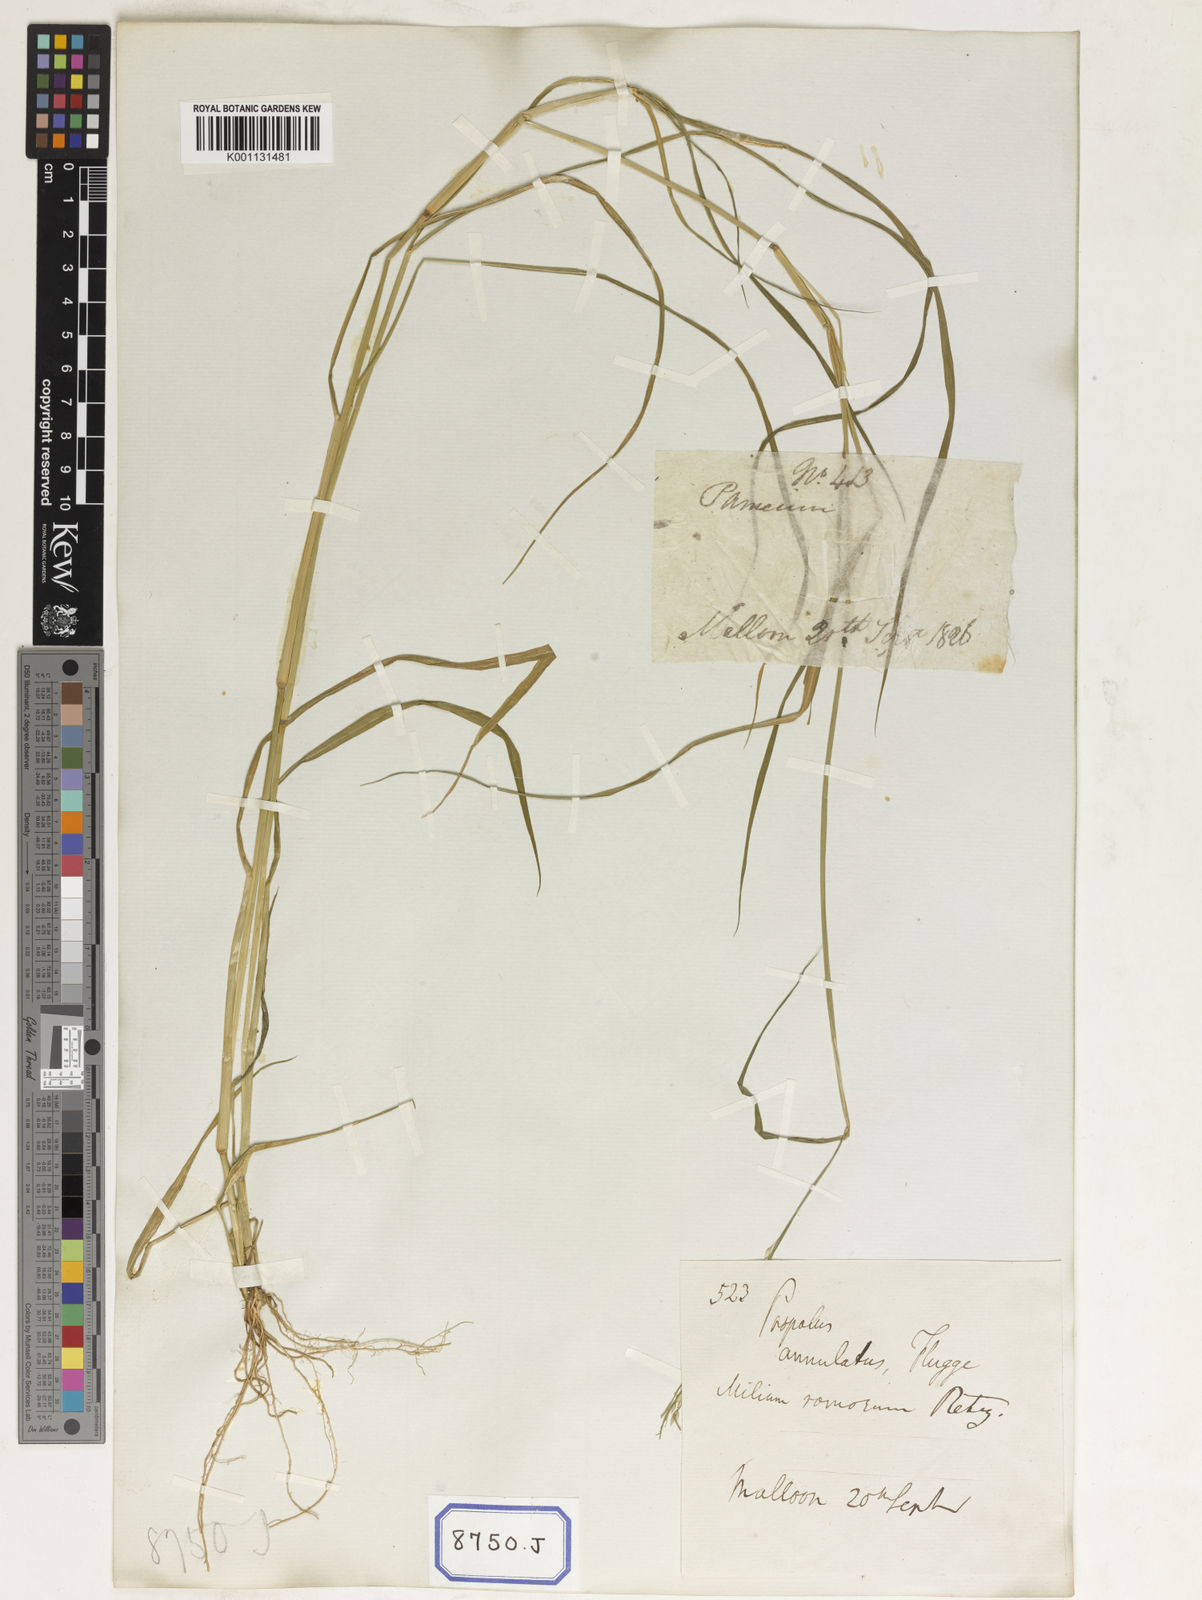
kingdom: Plantae
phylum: Tracheophyta
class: Liliopsida
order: Poales
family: Poaceae
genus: Eriochloa
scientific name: Eriochloa procera
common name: Spring grass
